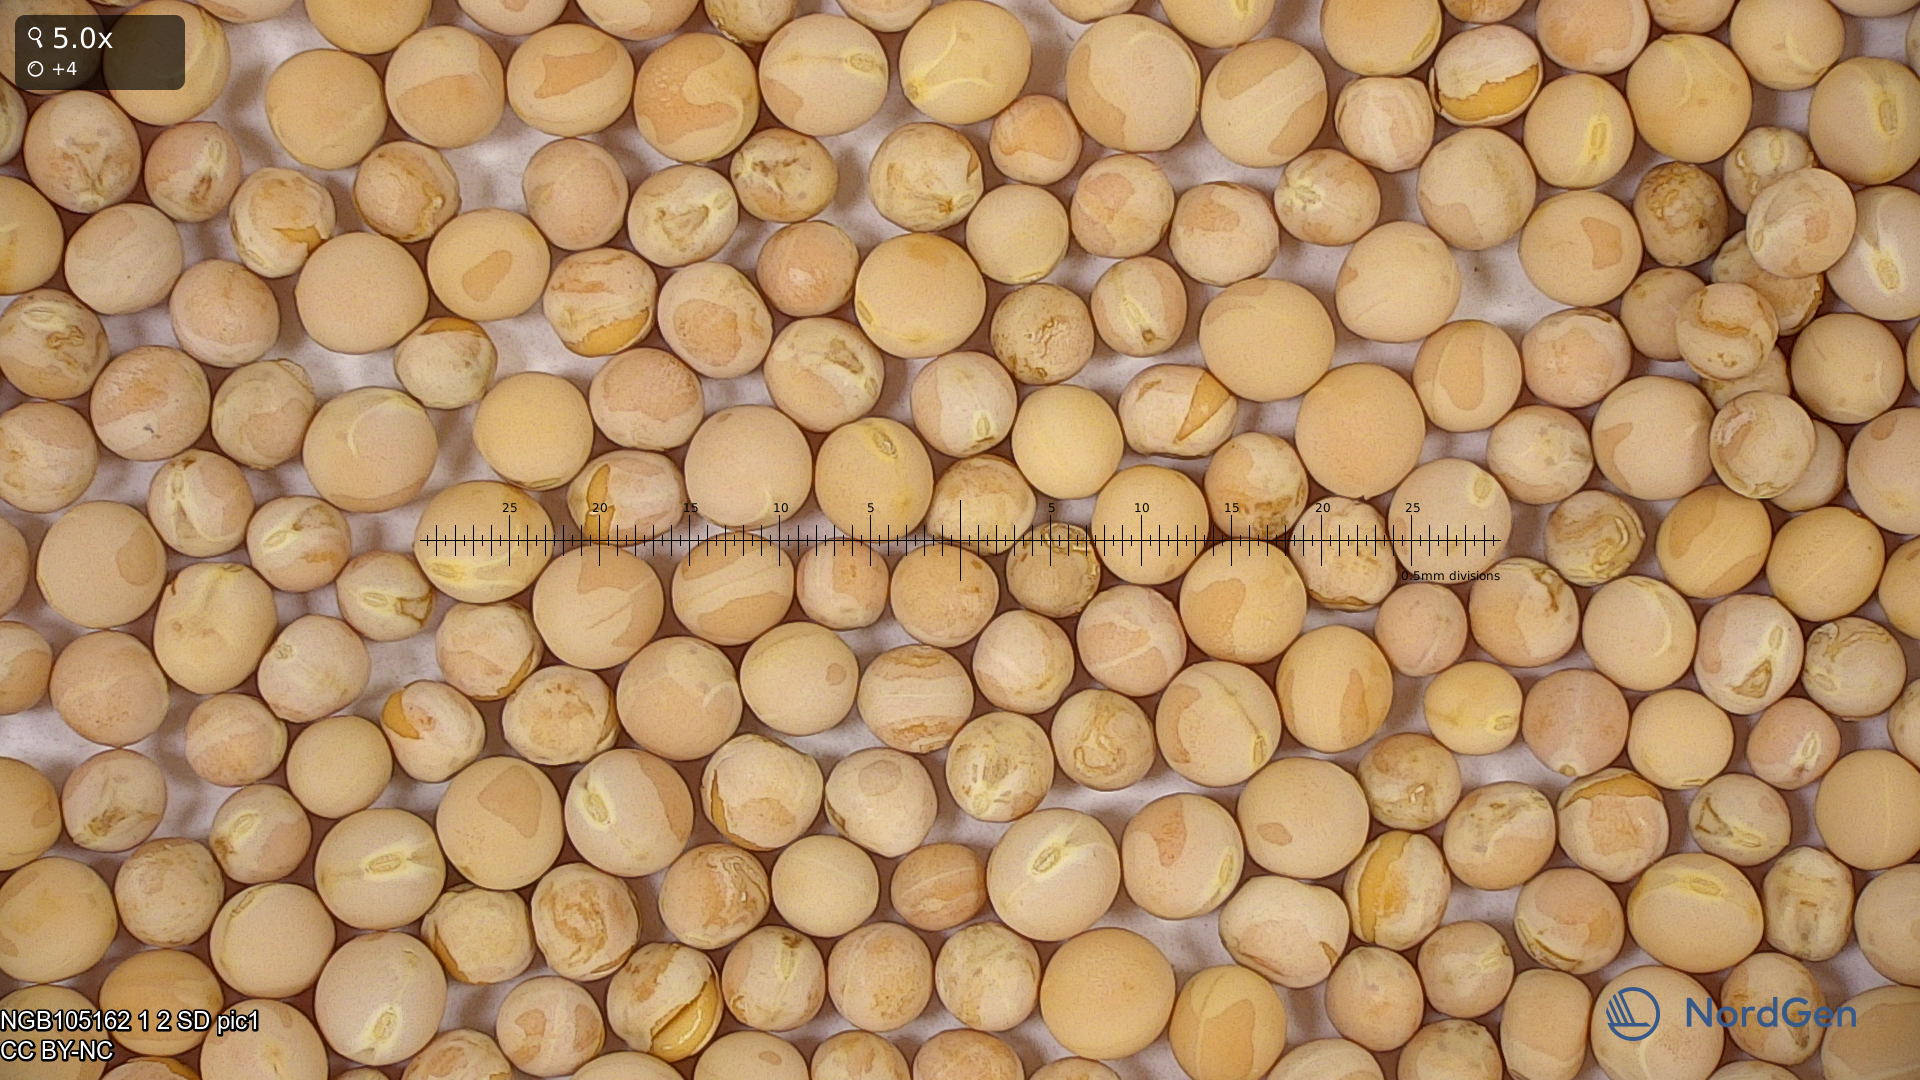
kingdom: Plantae
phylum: Tracheophyta
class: Magnoliopsida
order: Fabales
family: Fabaceae
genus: Lathyrus
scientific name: Lathyrus oleraceus
